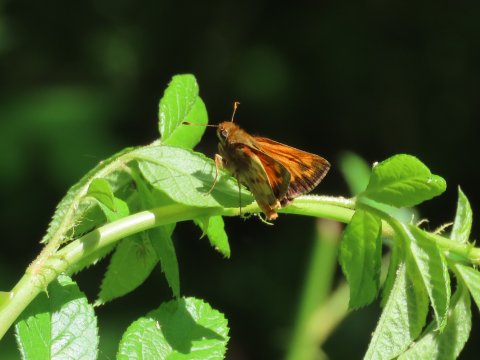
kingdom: Animalia
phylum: Arthropoda
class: Insecta
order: Lepidoptera
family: Hesperiidae
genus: Lon
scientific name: Lon zabulon
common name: Zabulon Skipper
